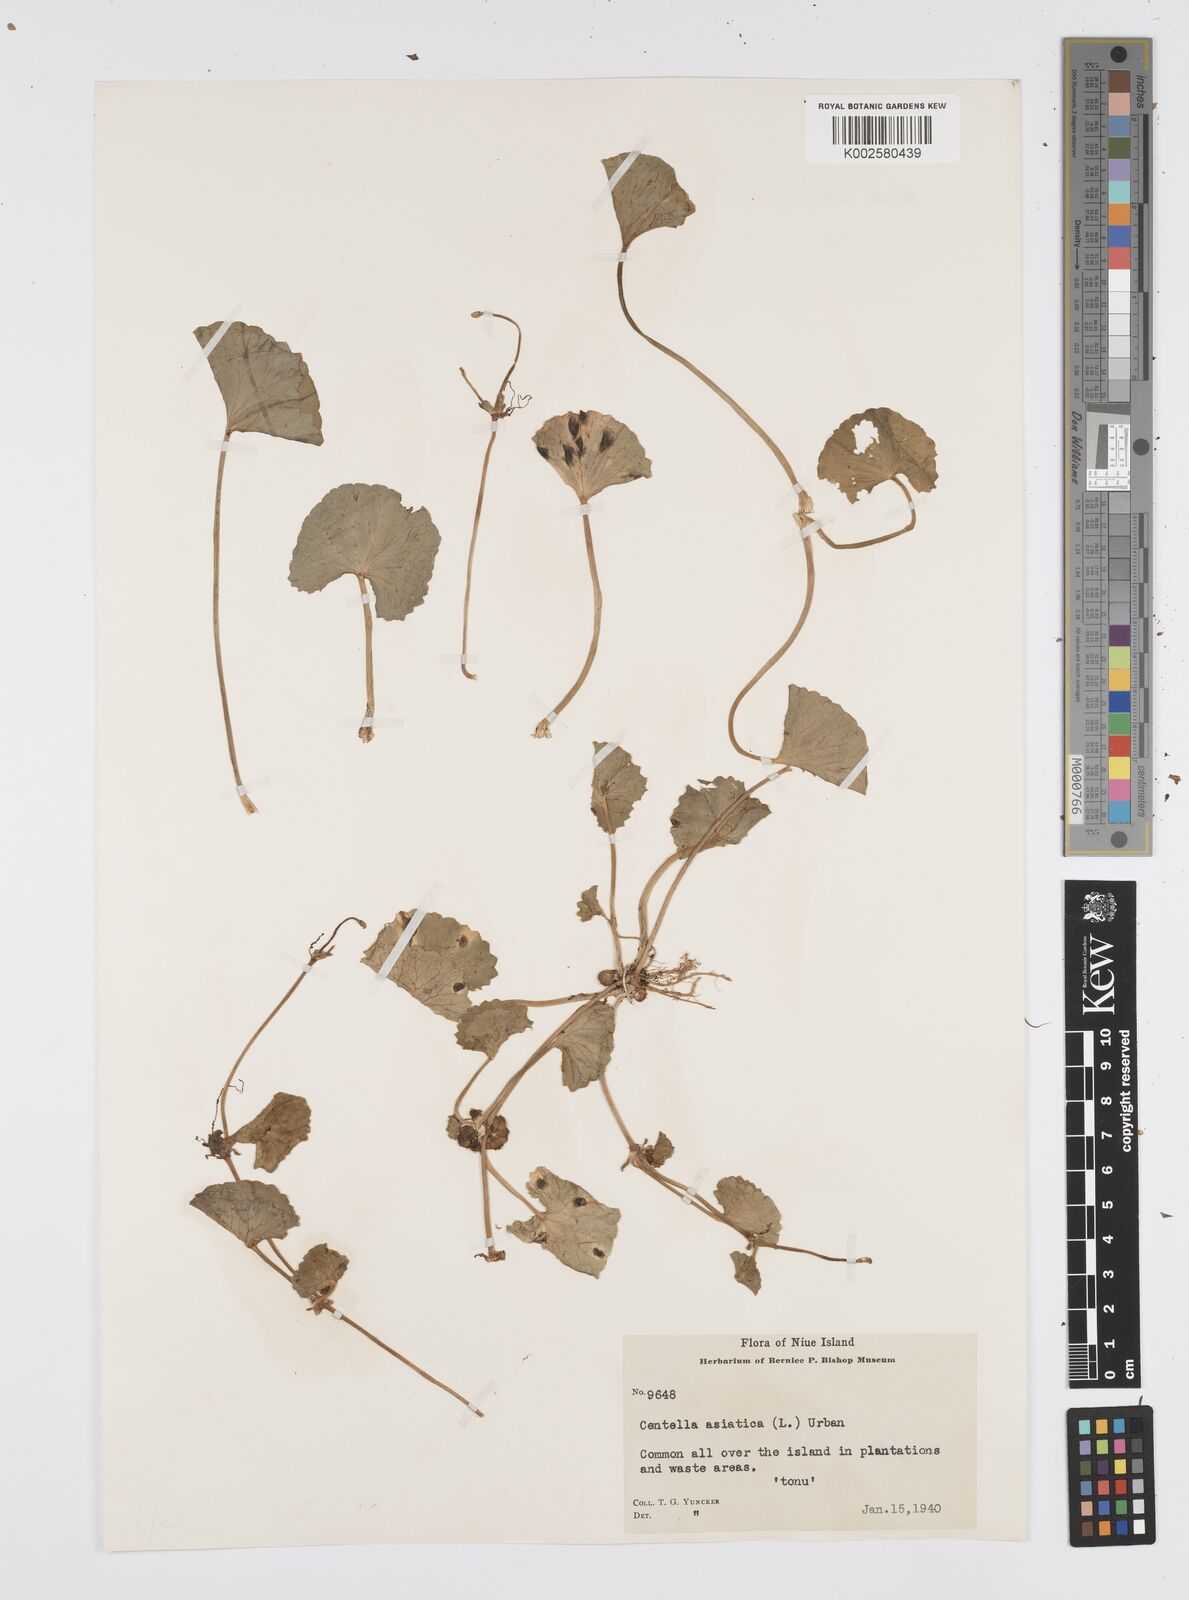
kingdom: Plantae
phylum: Tracheophyta
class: Magnoliopsida
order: Apiales
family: Apiaceae
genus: Centella
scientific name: Centella asiatica
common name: Spadeleaf
